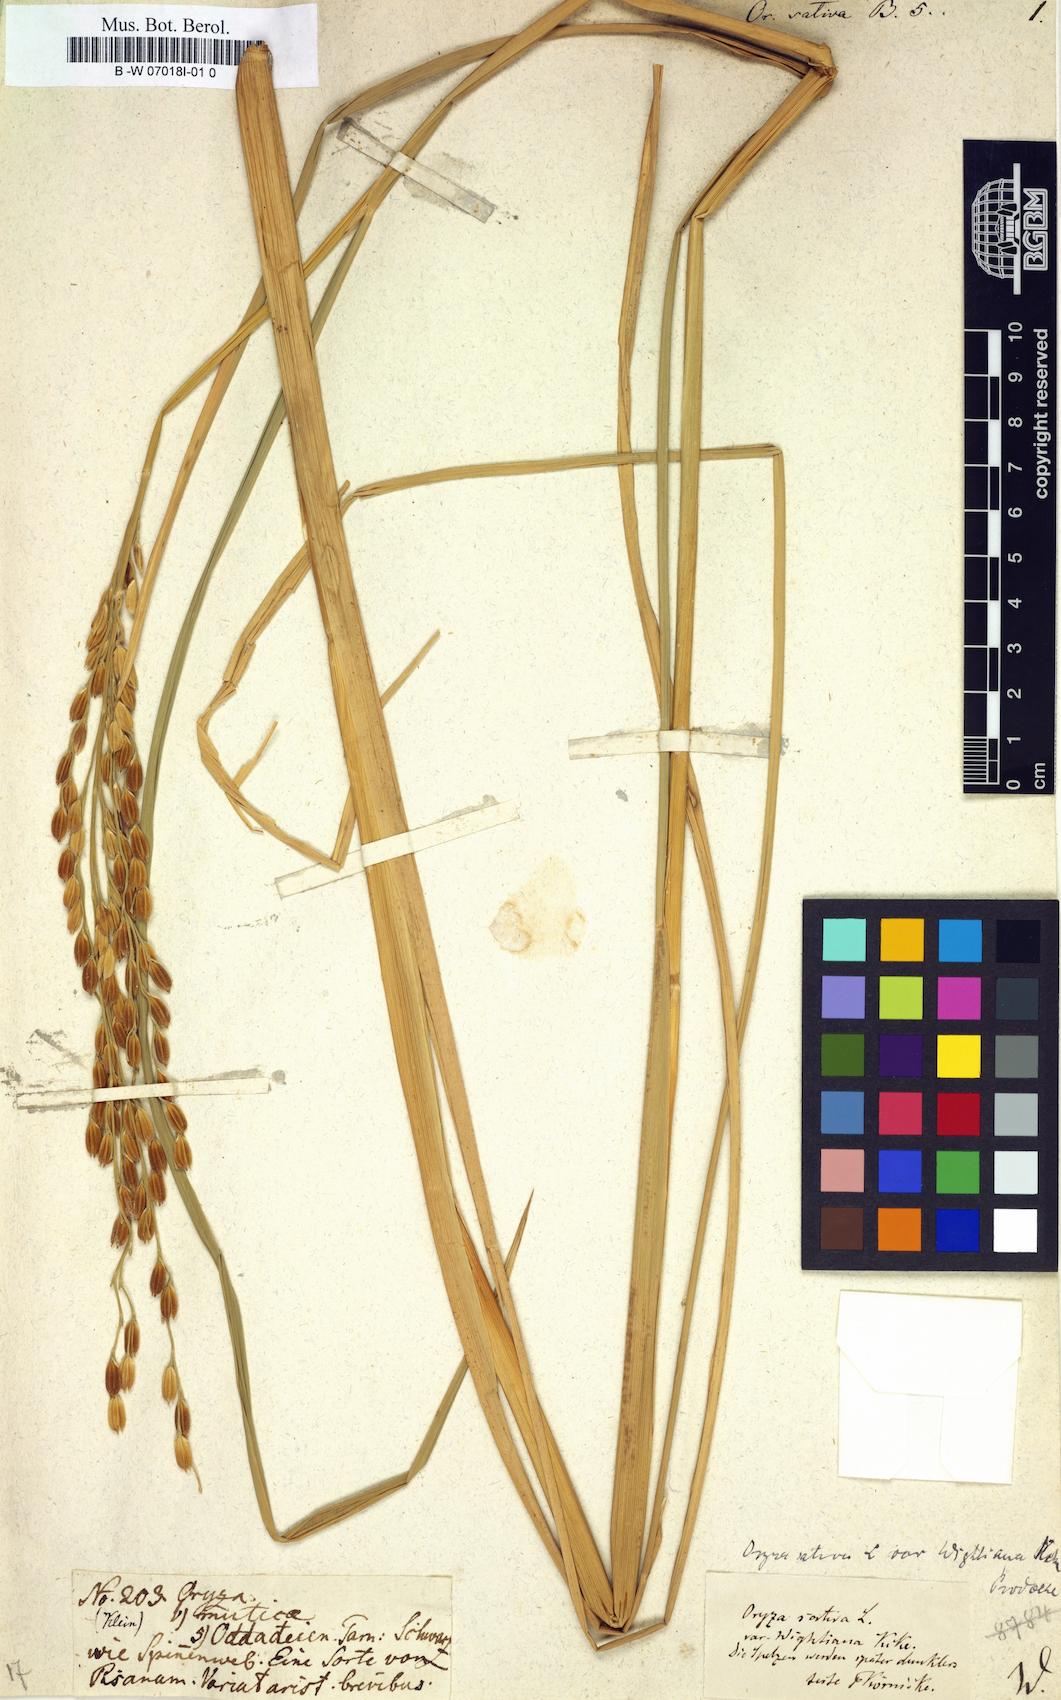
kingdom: Plantae
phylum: Tracheophyta
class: Liliopsida
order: Poales
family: Poaceae
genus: Oryza
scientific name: Oryza sativa
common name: Rice
